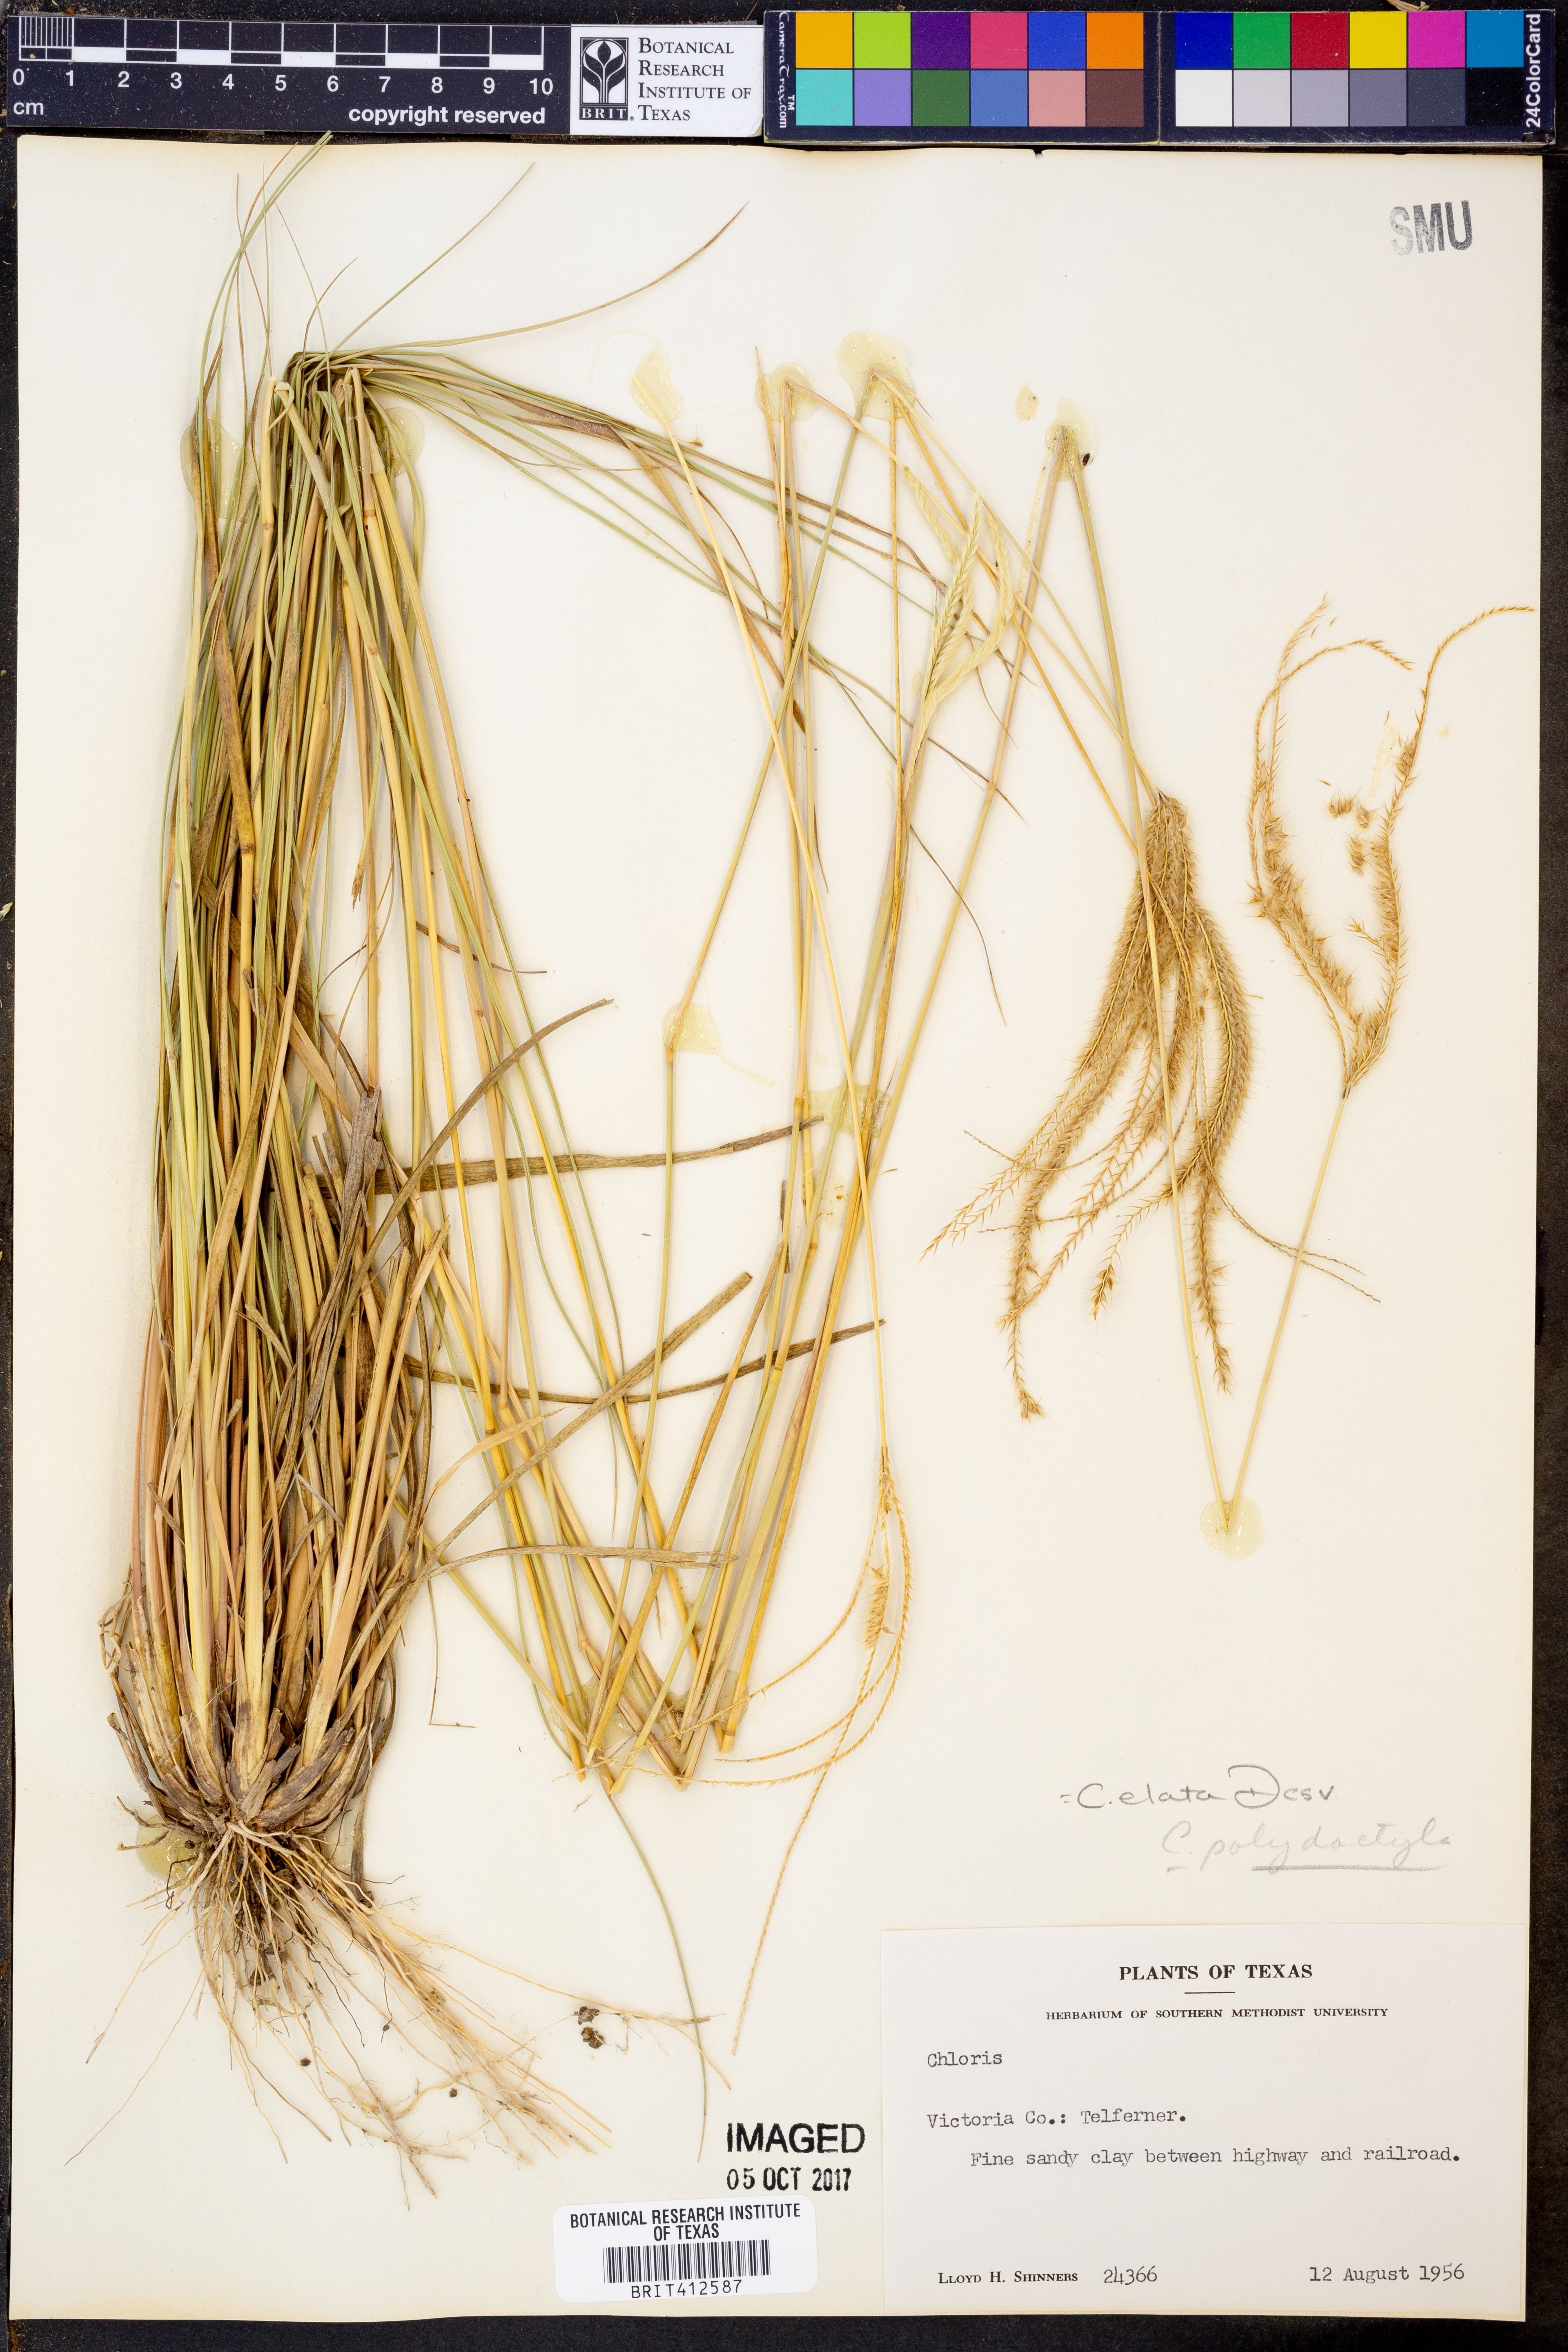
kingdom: Plantae
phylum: Tracheophyta
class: Liliopsida
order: Poales
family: Poaceae
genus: Chloris
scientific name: Chloris
